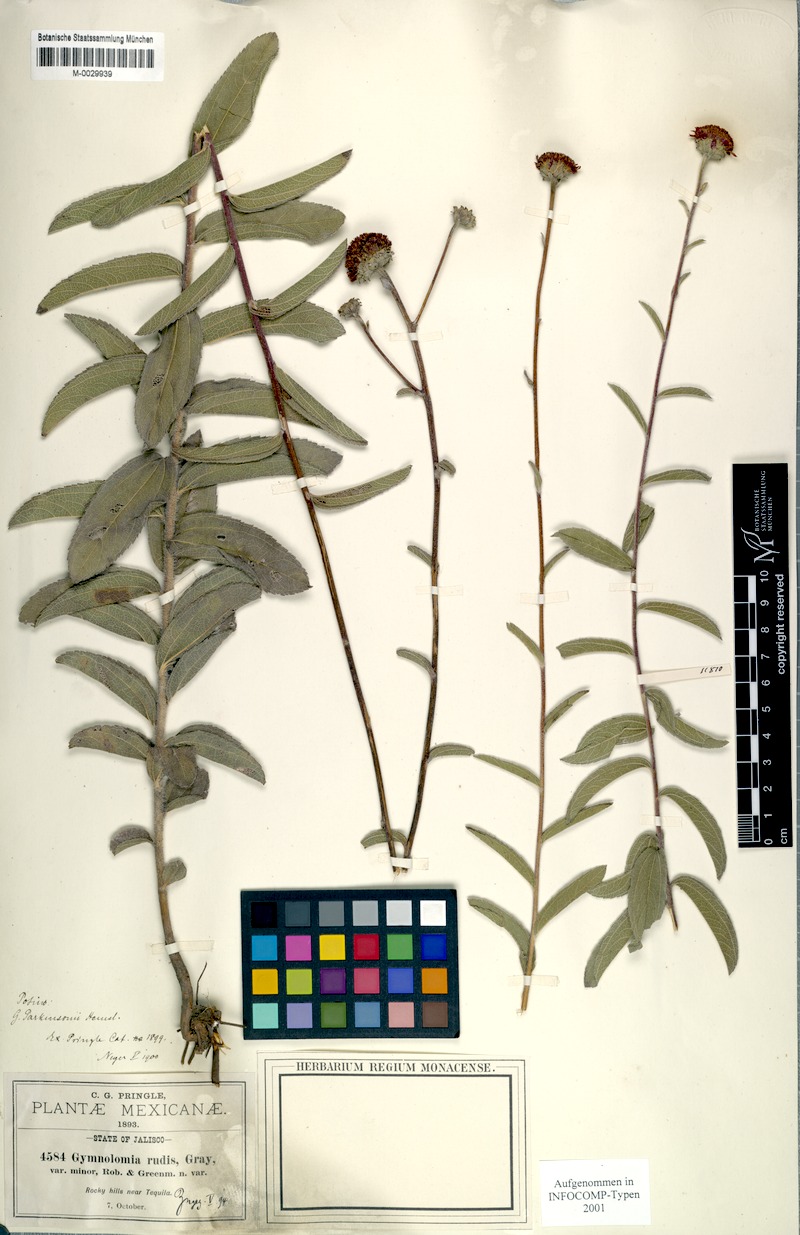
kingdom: Plantae
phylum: Tracheophyta
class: Magnoliopsida
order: Asterales
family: Asteraceae
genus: Aldama
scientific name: Aldama parkinsonii
